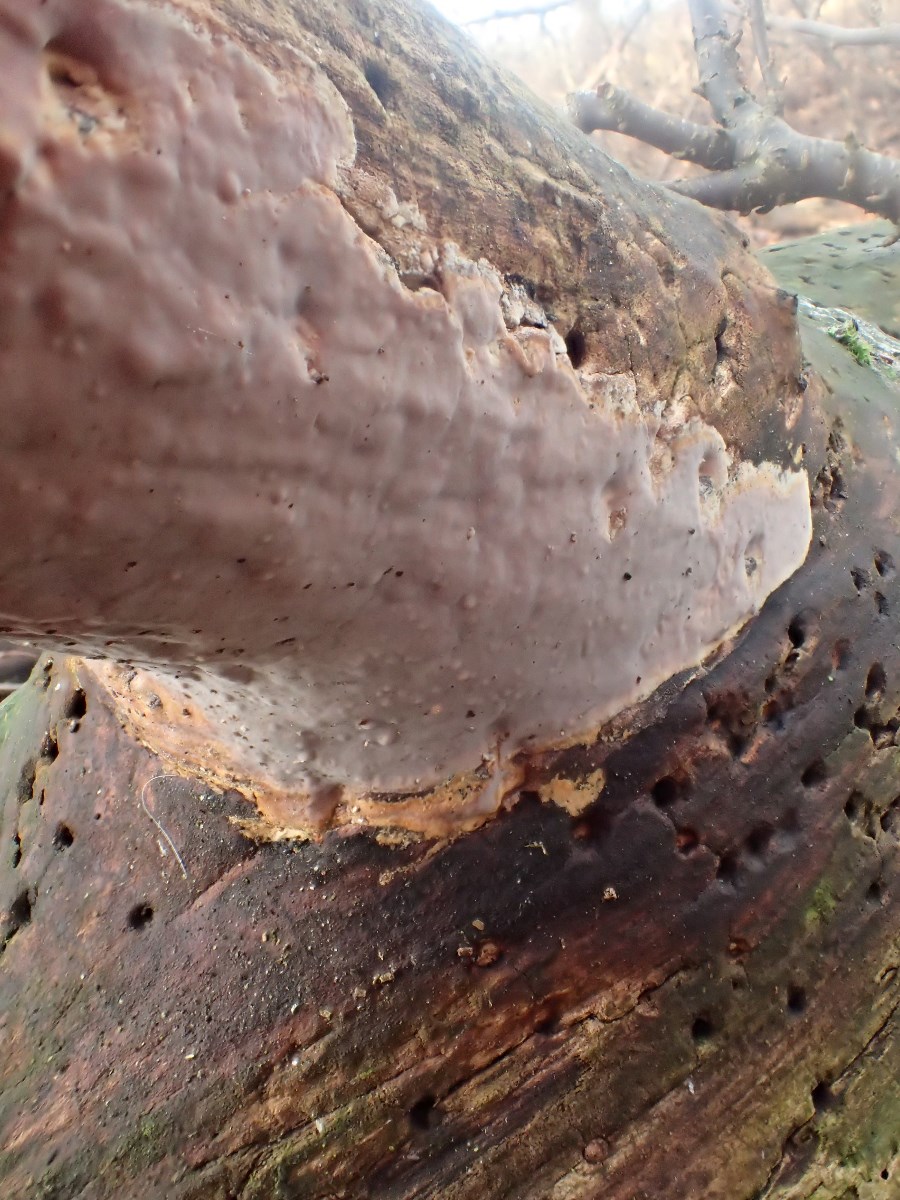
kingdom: Fungi
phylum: Basidiomycota
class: Agaricomycetes
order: Russulales
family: Peniophoraceae
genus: Scytinostroma
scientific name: Scytinostroma hemidichophyticum
